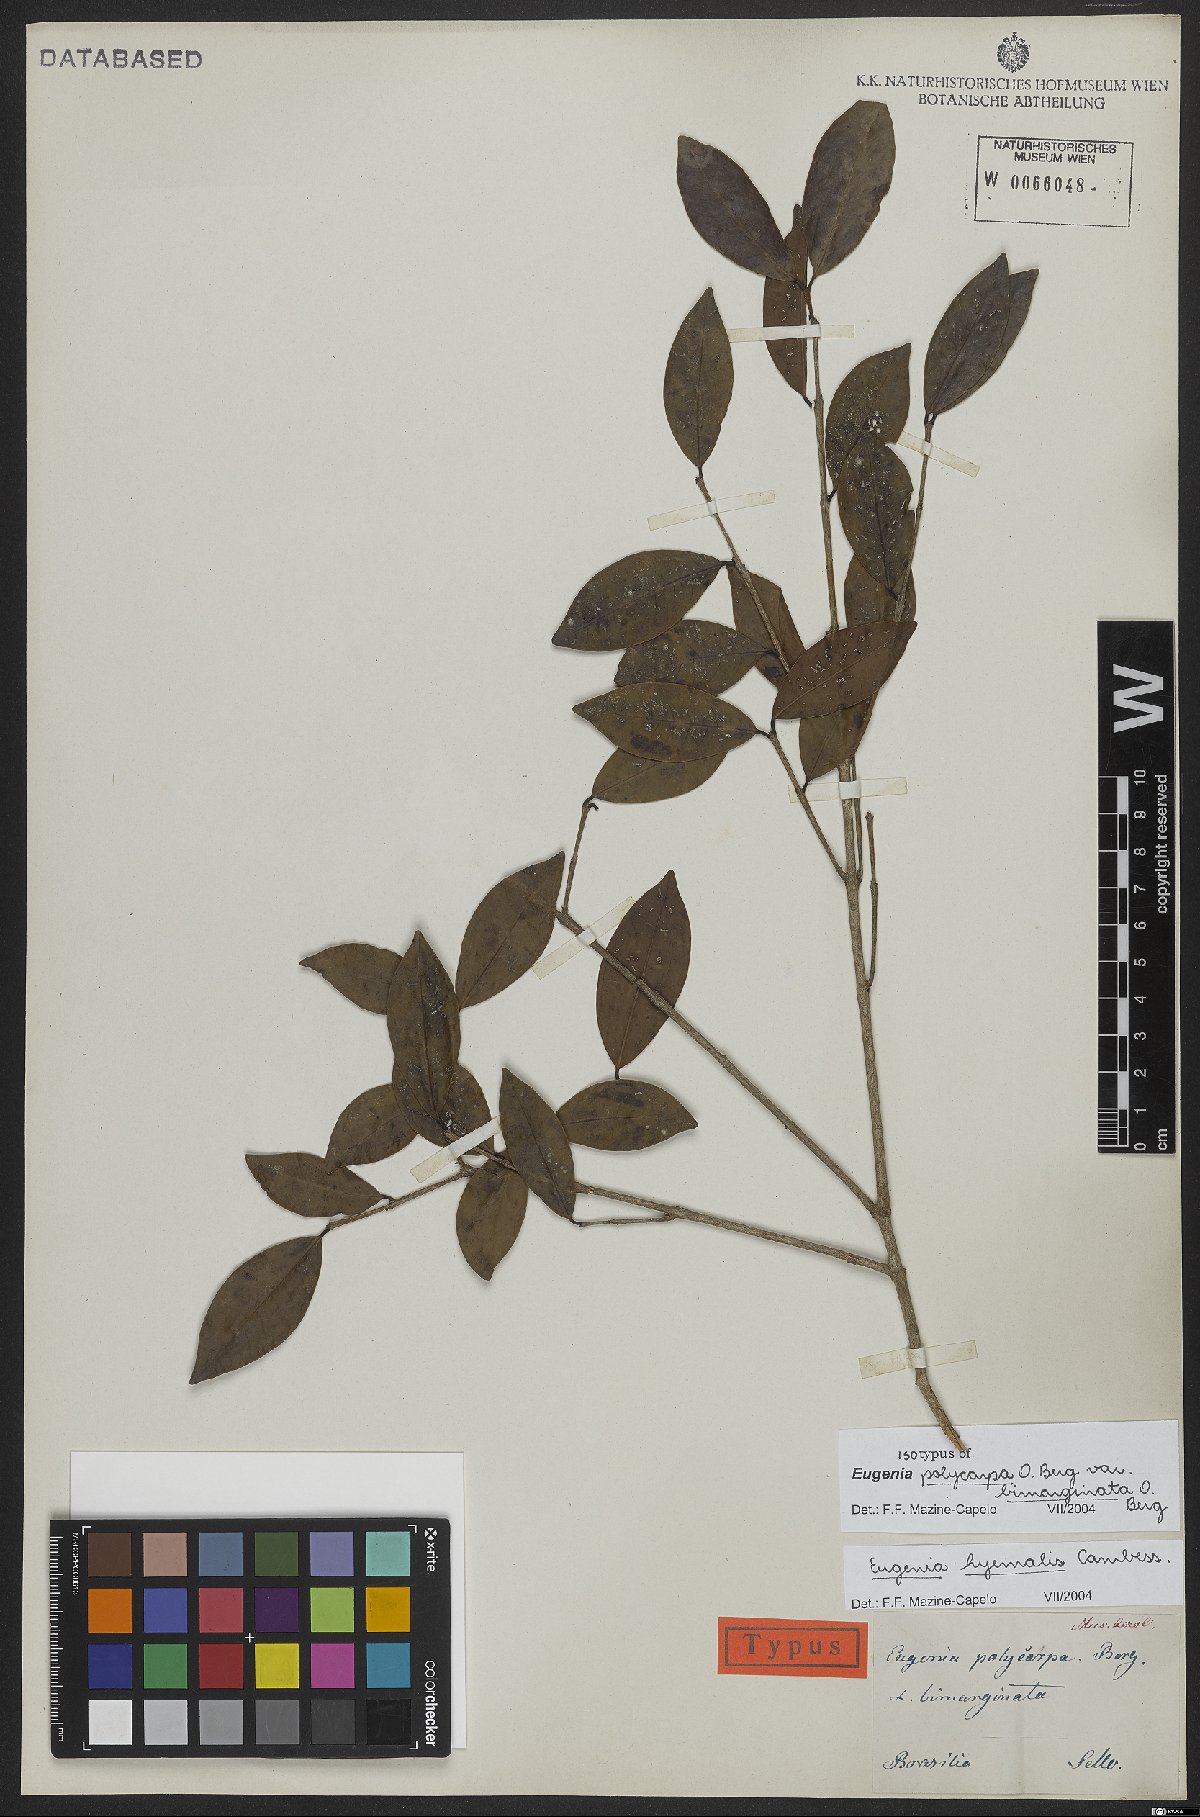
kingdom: Plantae
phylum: Tracheophyta
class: Magnoliopsida
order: Myrtales
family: Myrtaceae
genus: Eugenia
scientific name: Eugenia hiemalis
